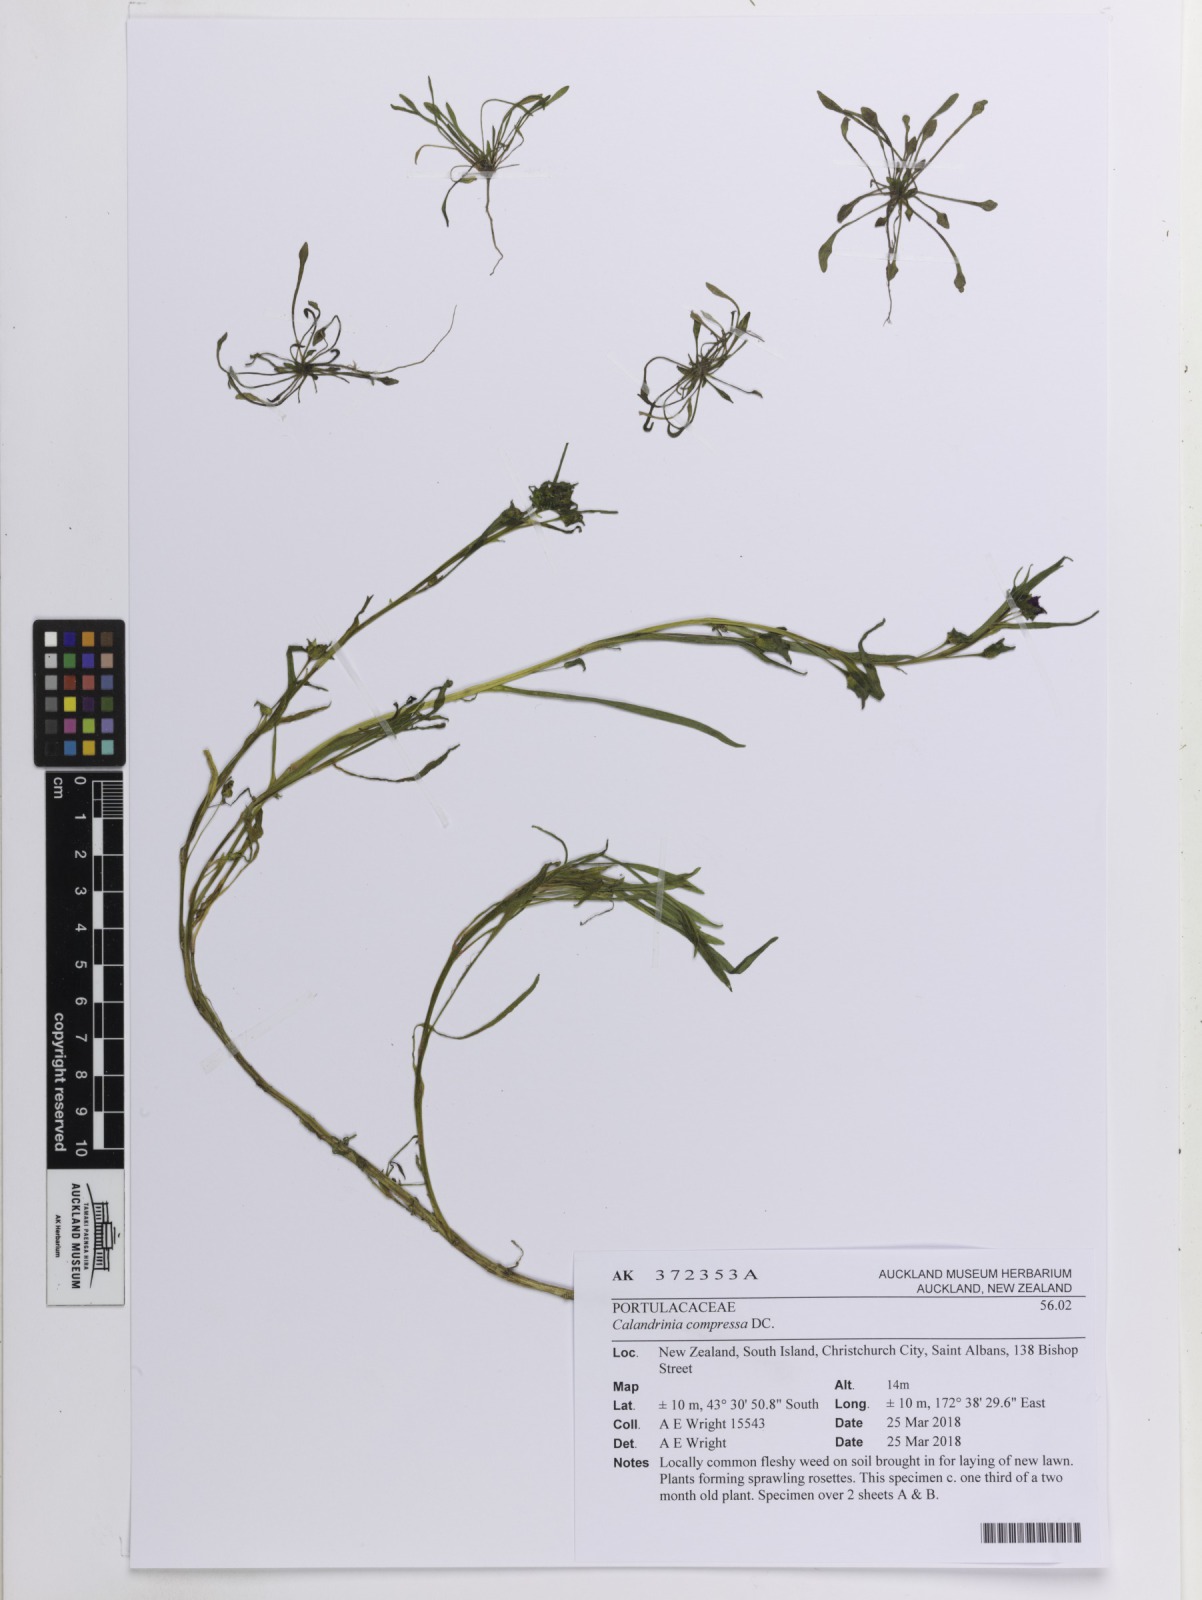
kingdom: Plantae
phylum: Tracheophyta
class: Magnoliopsida
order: Caryophyllales
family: Montiaceae
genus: Calandrinia
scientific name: Calandrinia pilosiuscula
